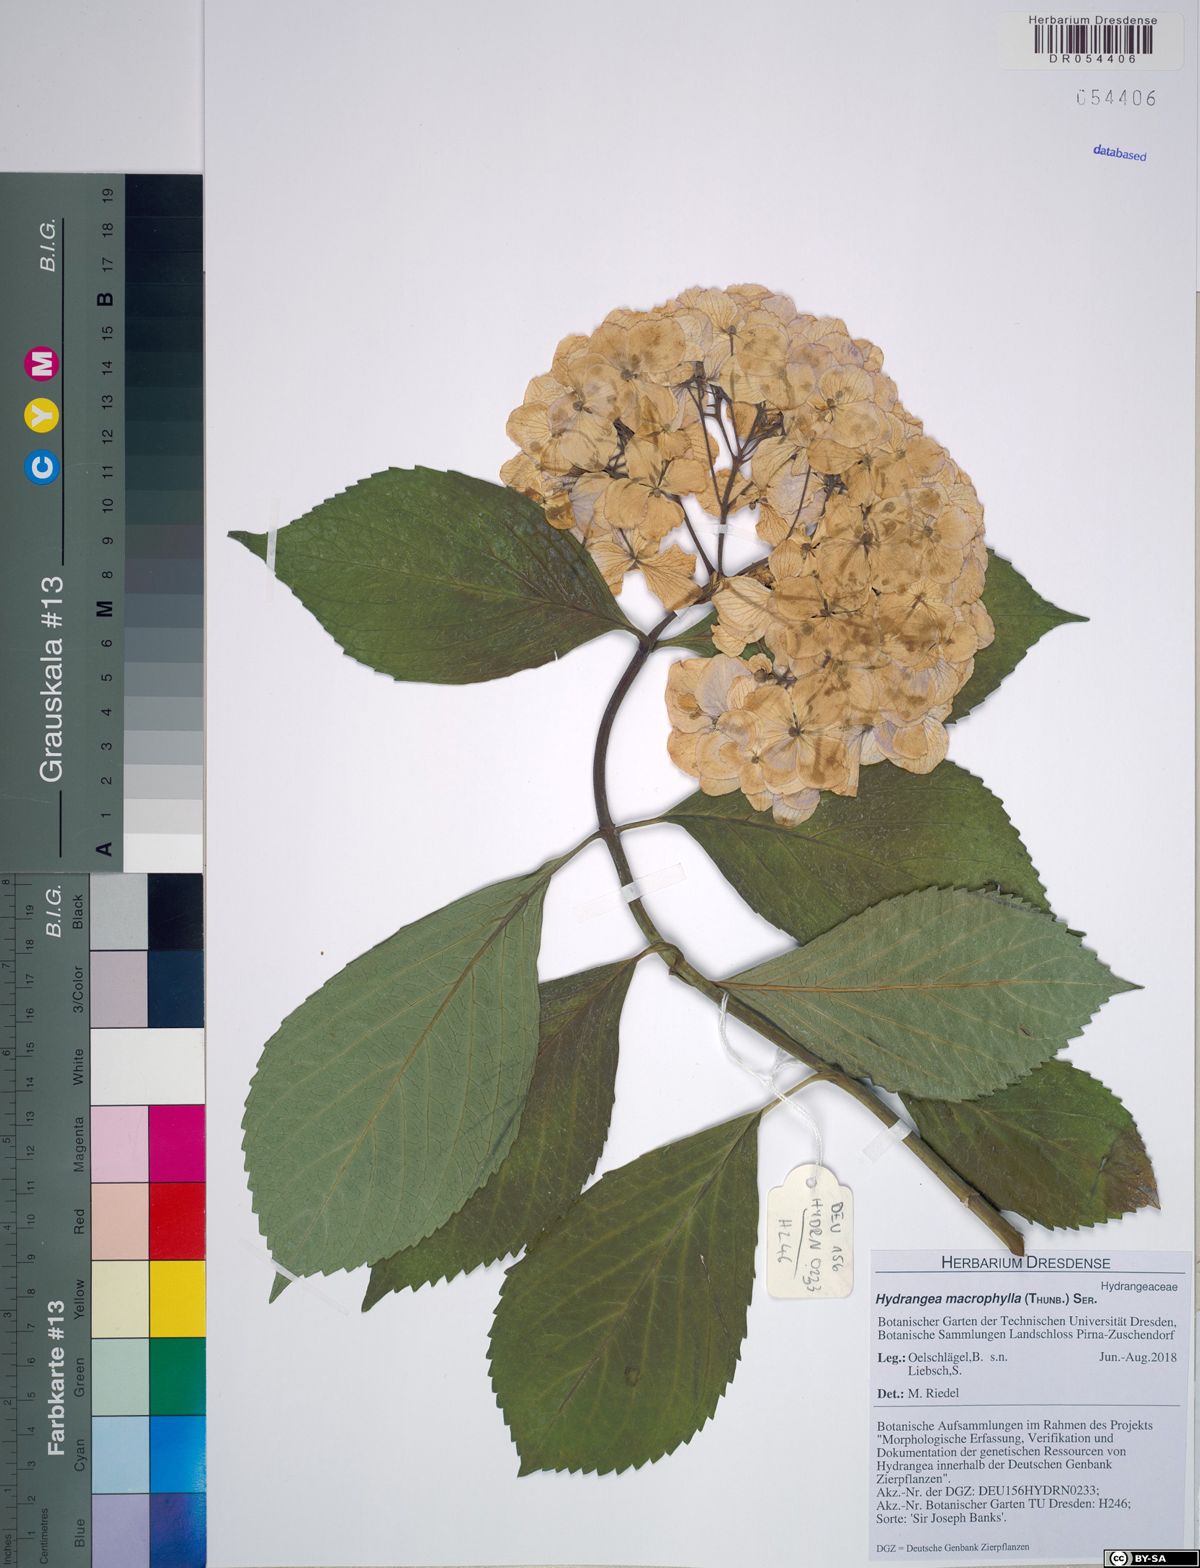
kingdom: Plantae
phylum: Tracheophyta
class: Magnoliopsida
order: Cornales
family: Hydrangeaceae
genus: Hydrangea
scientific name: Hydrangea macrophylla
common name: Hydrangea
